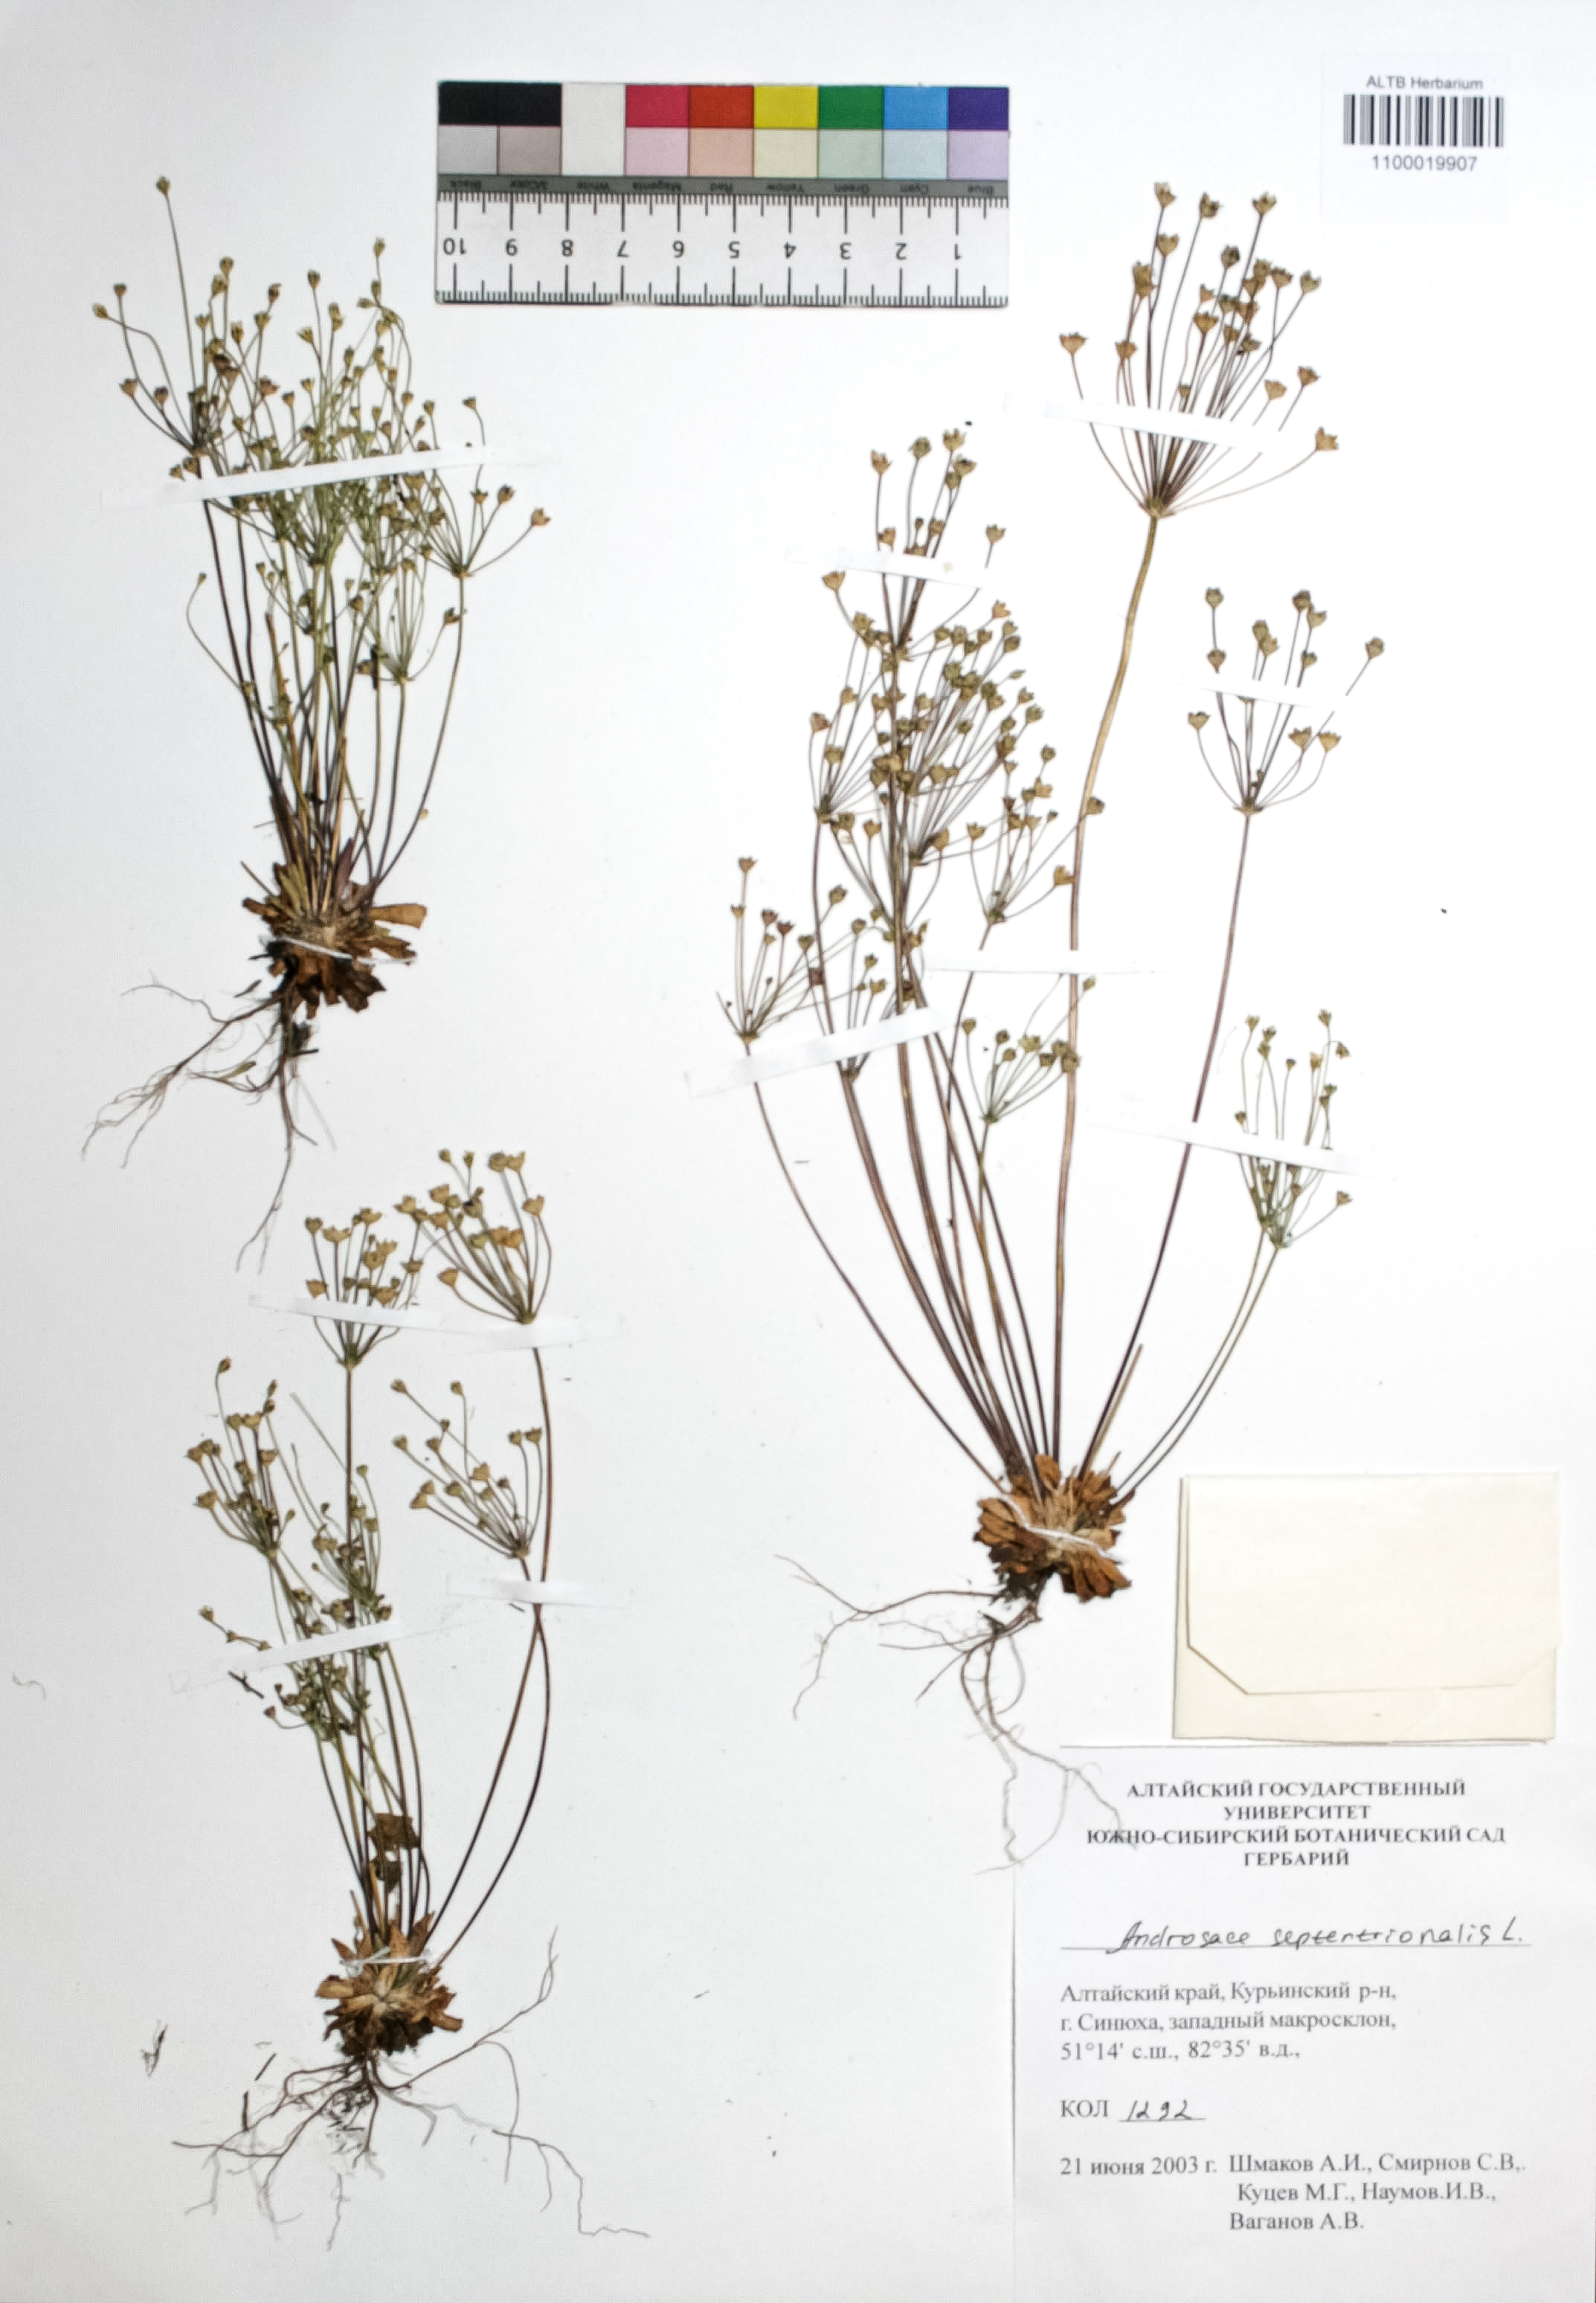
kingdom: Plantae
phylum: Tracheophyta
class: Magnoliopsida
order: Ericales
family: Primulaceae
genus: Androsace
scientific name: Androsace septentrionalis
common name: Hairy northern fairy-candelabra
